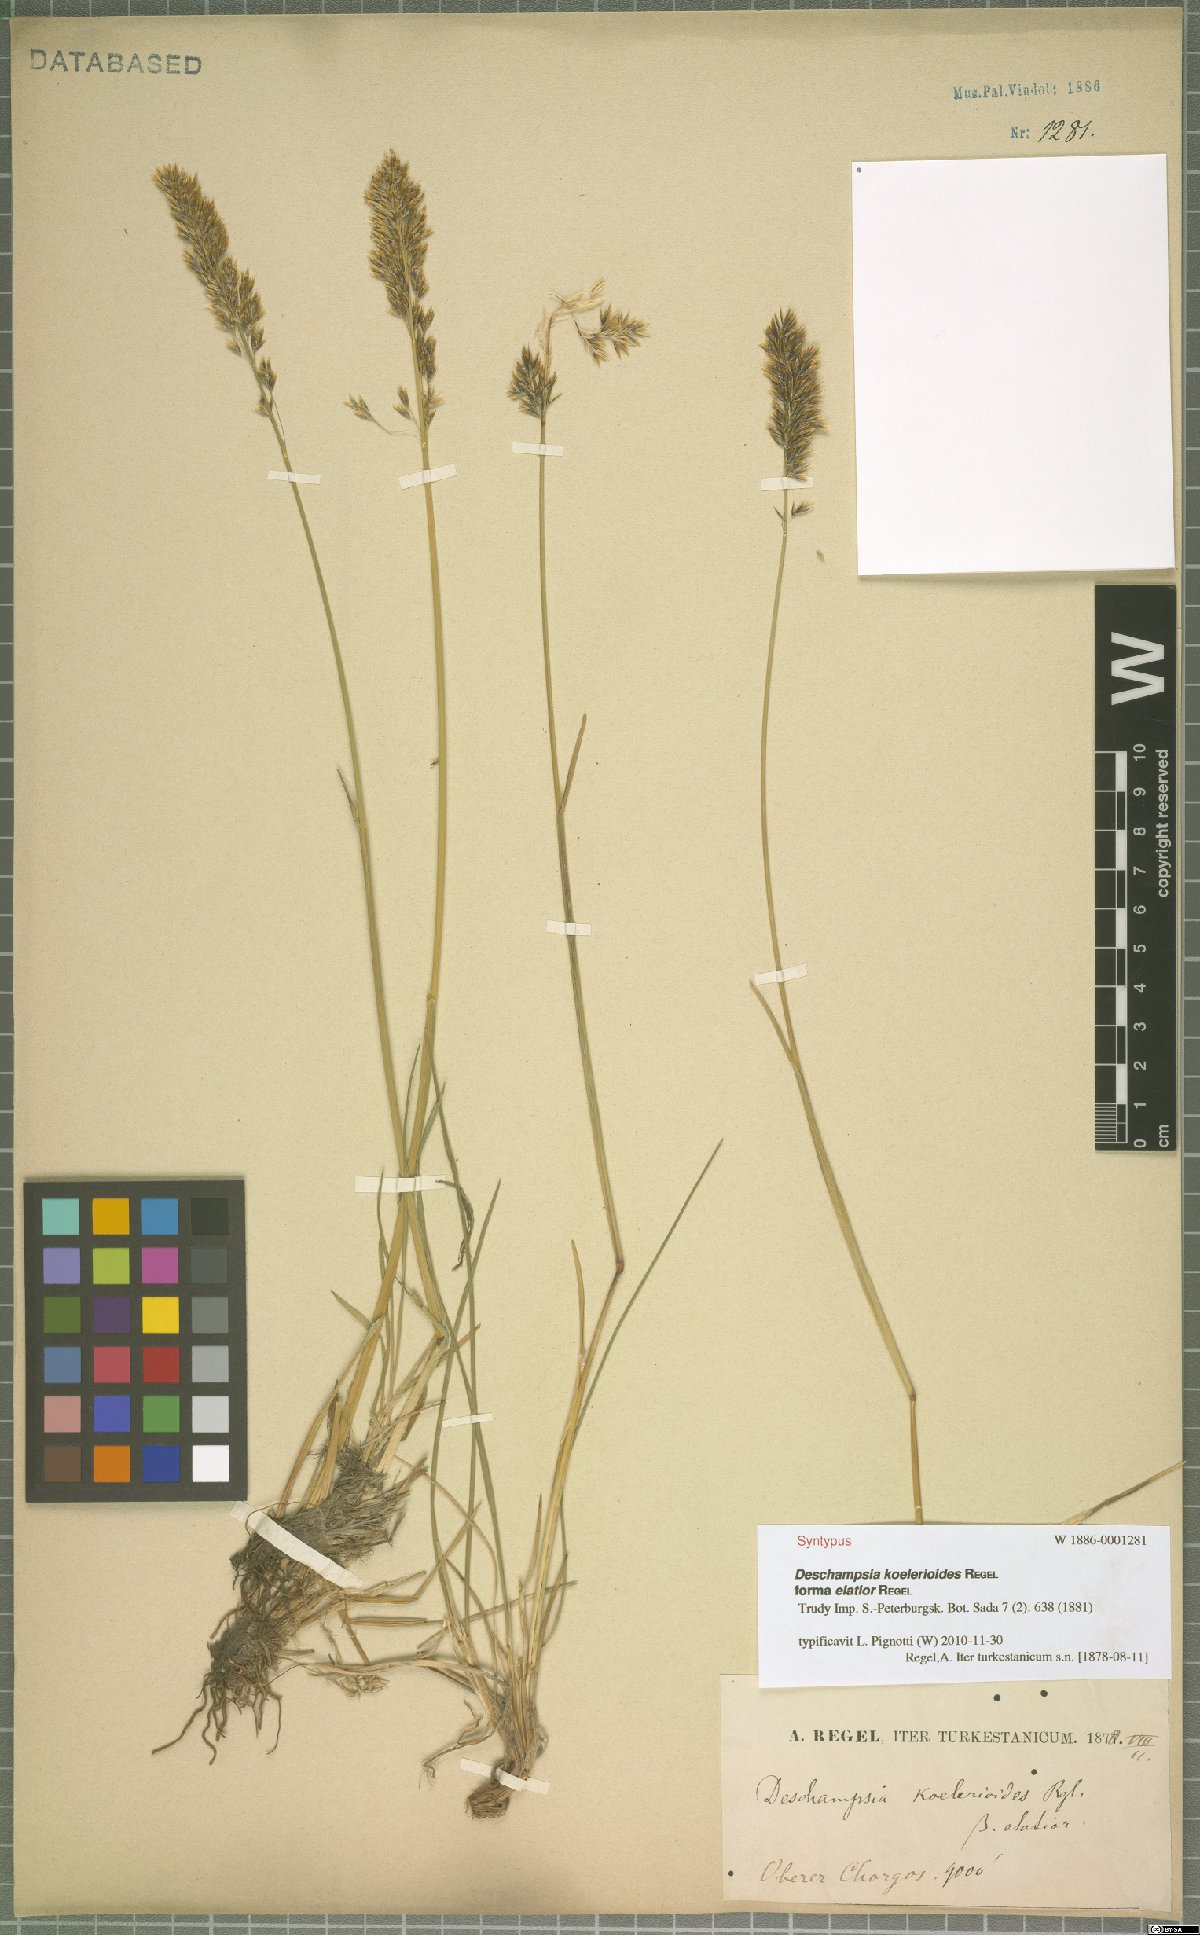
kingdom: Plantae
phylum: Tracheophyta
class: Liliopsida
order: Poales
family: Poaceae
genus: Deschampsia
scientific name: Deschampsia koelerioides
